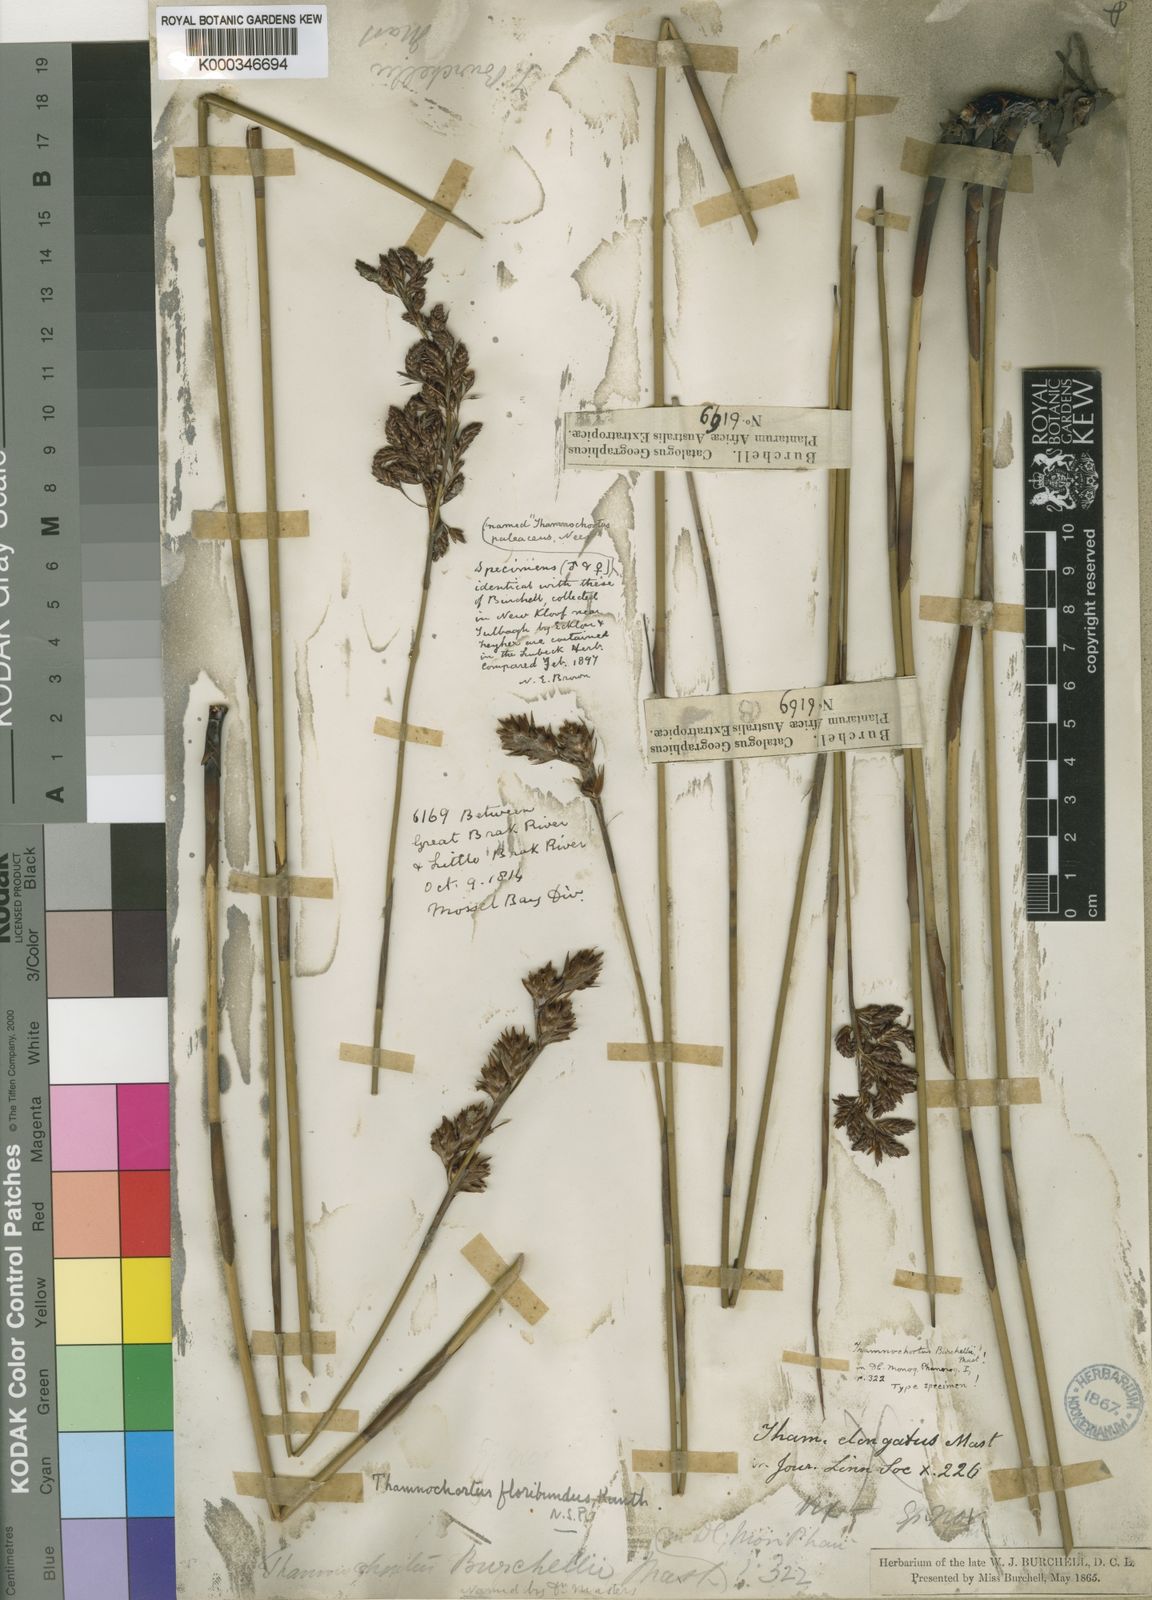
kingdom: Plantae
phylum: Tracheophyta
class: Liliopsida
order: Poales
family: Restionaceae
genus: Thamnochortus
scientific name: Thamnochortus erectus
